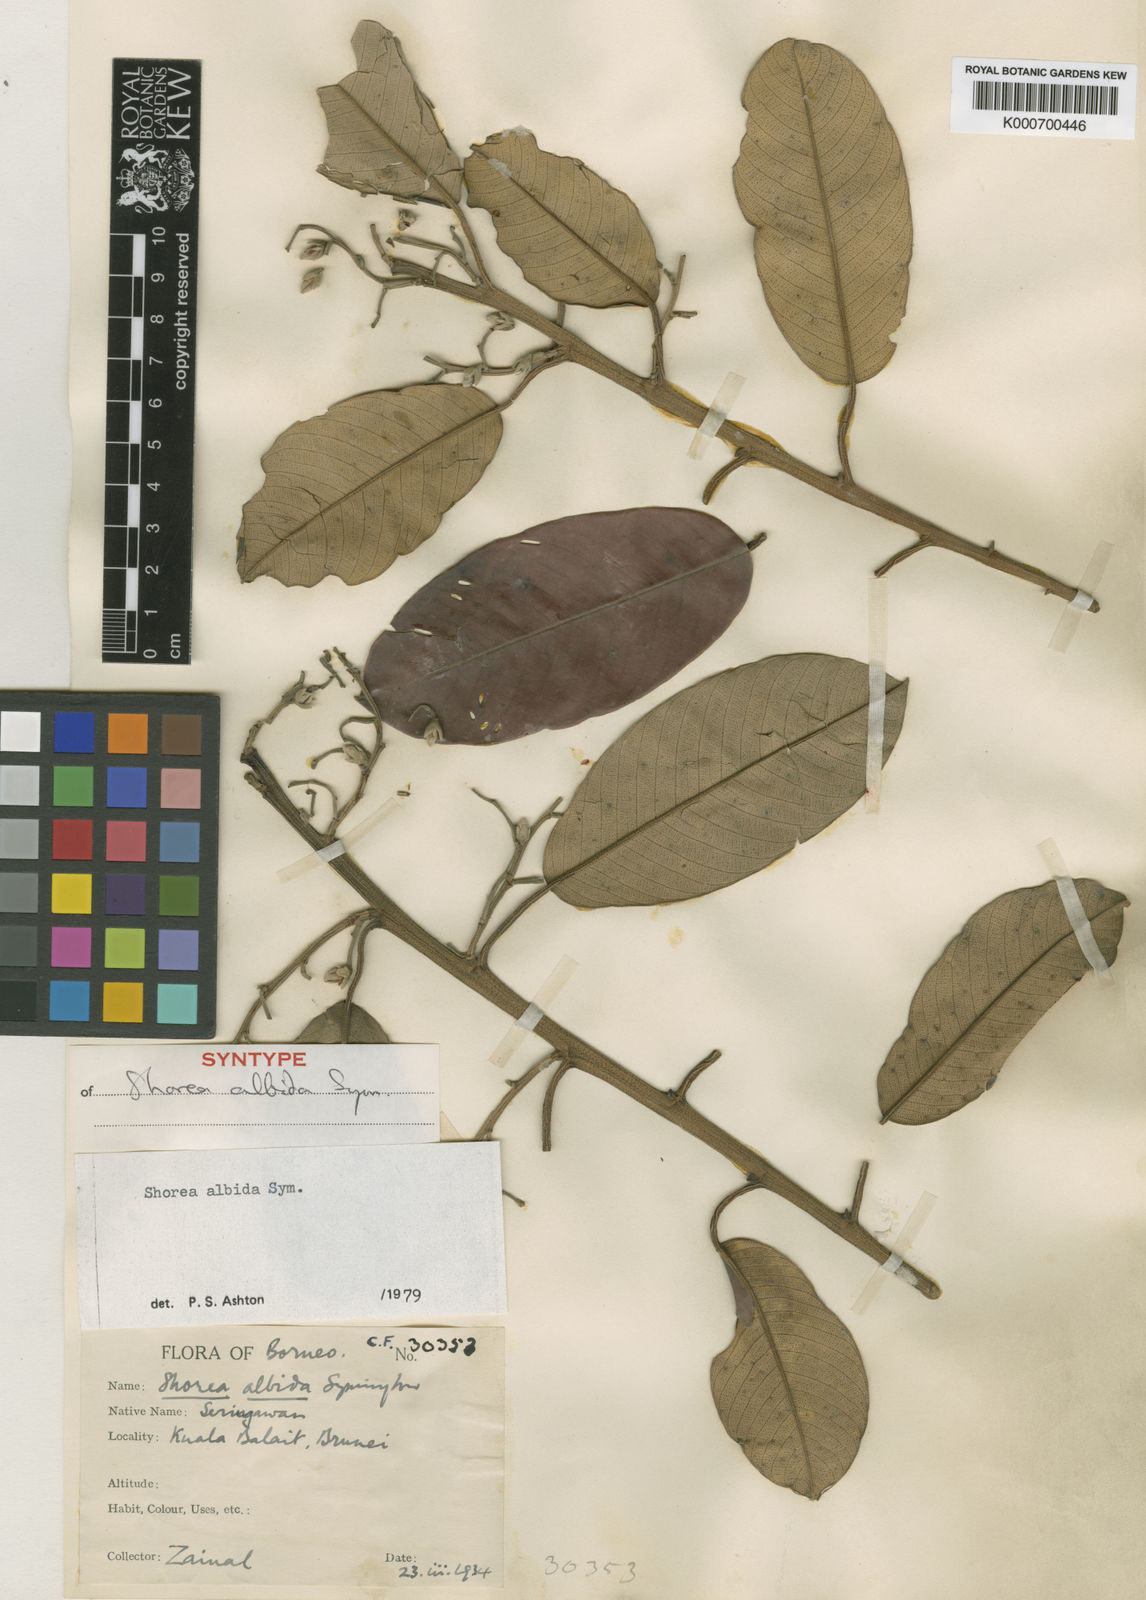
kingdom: Plantae
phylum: Tracheophyta
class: Magnoliopsida
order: Malvales
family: Dipterocarpaceae
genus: Shorea
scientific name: Shorea
